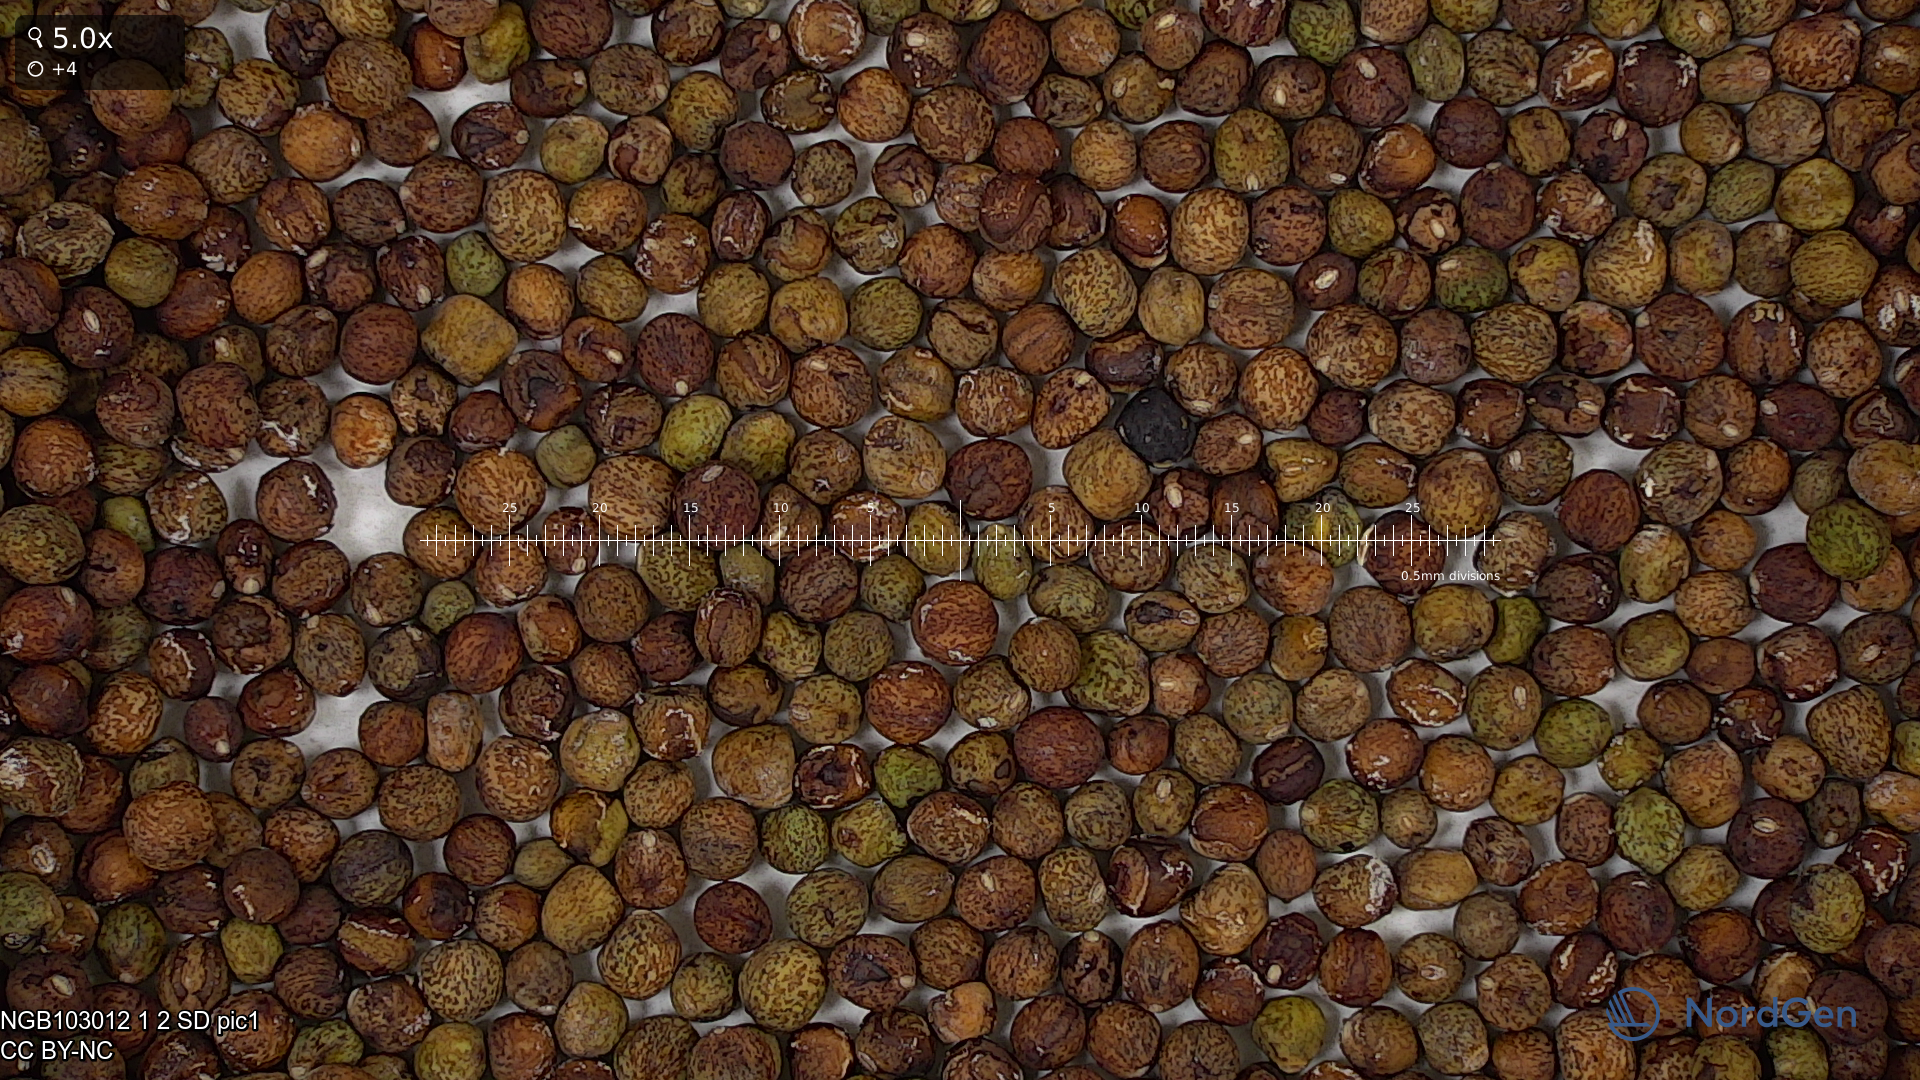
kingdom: Plantae
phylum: Tracheophyta
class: Magnoliopsida
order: Fabales
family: Fabaceae
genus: Lathyrus
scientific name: Lathyrus oleraceus
